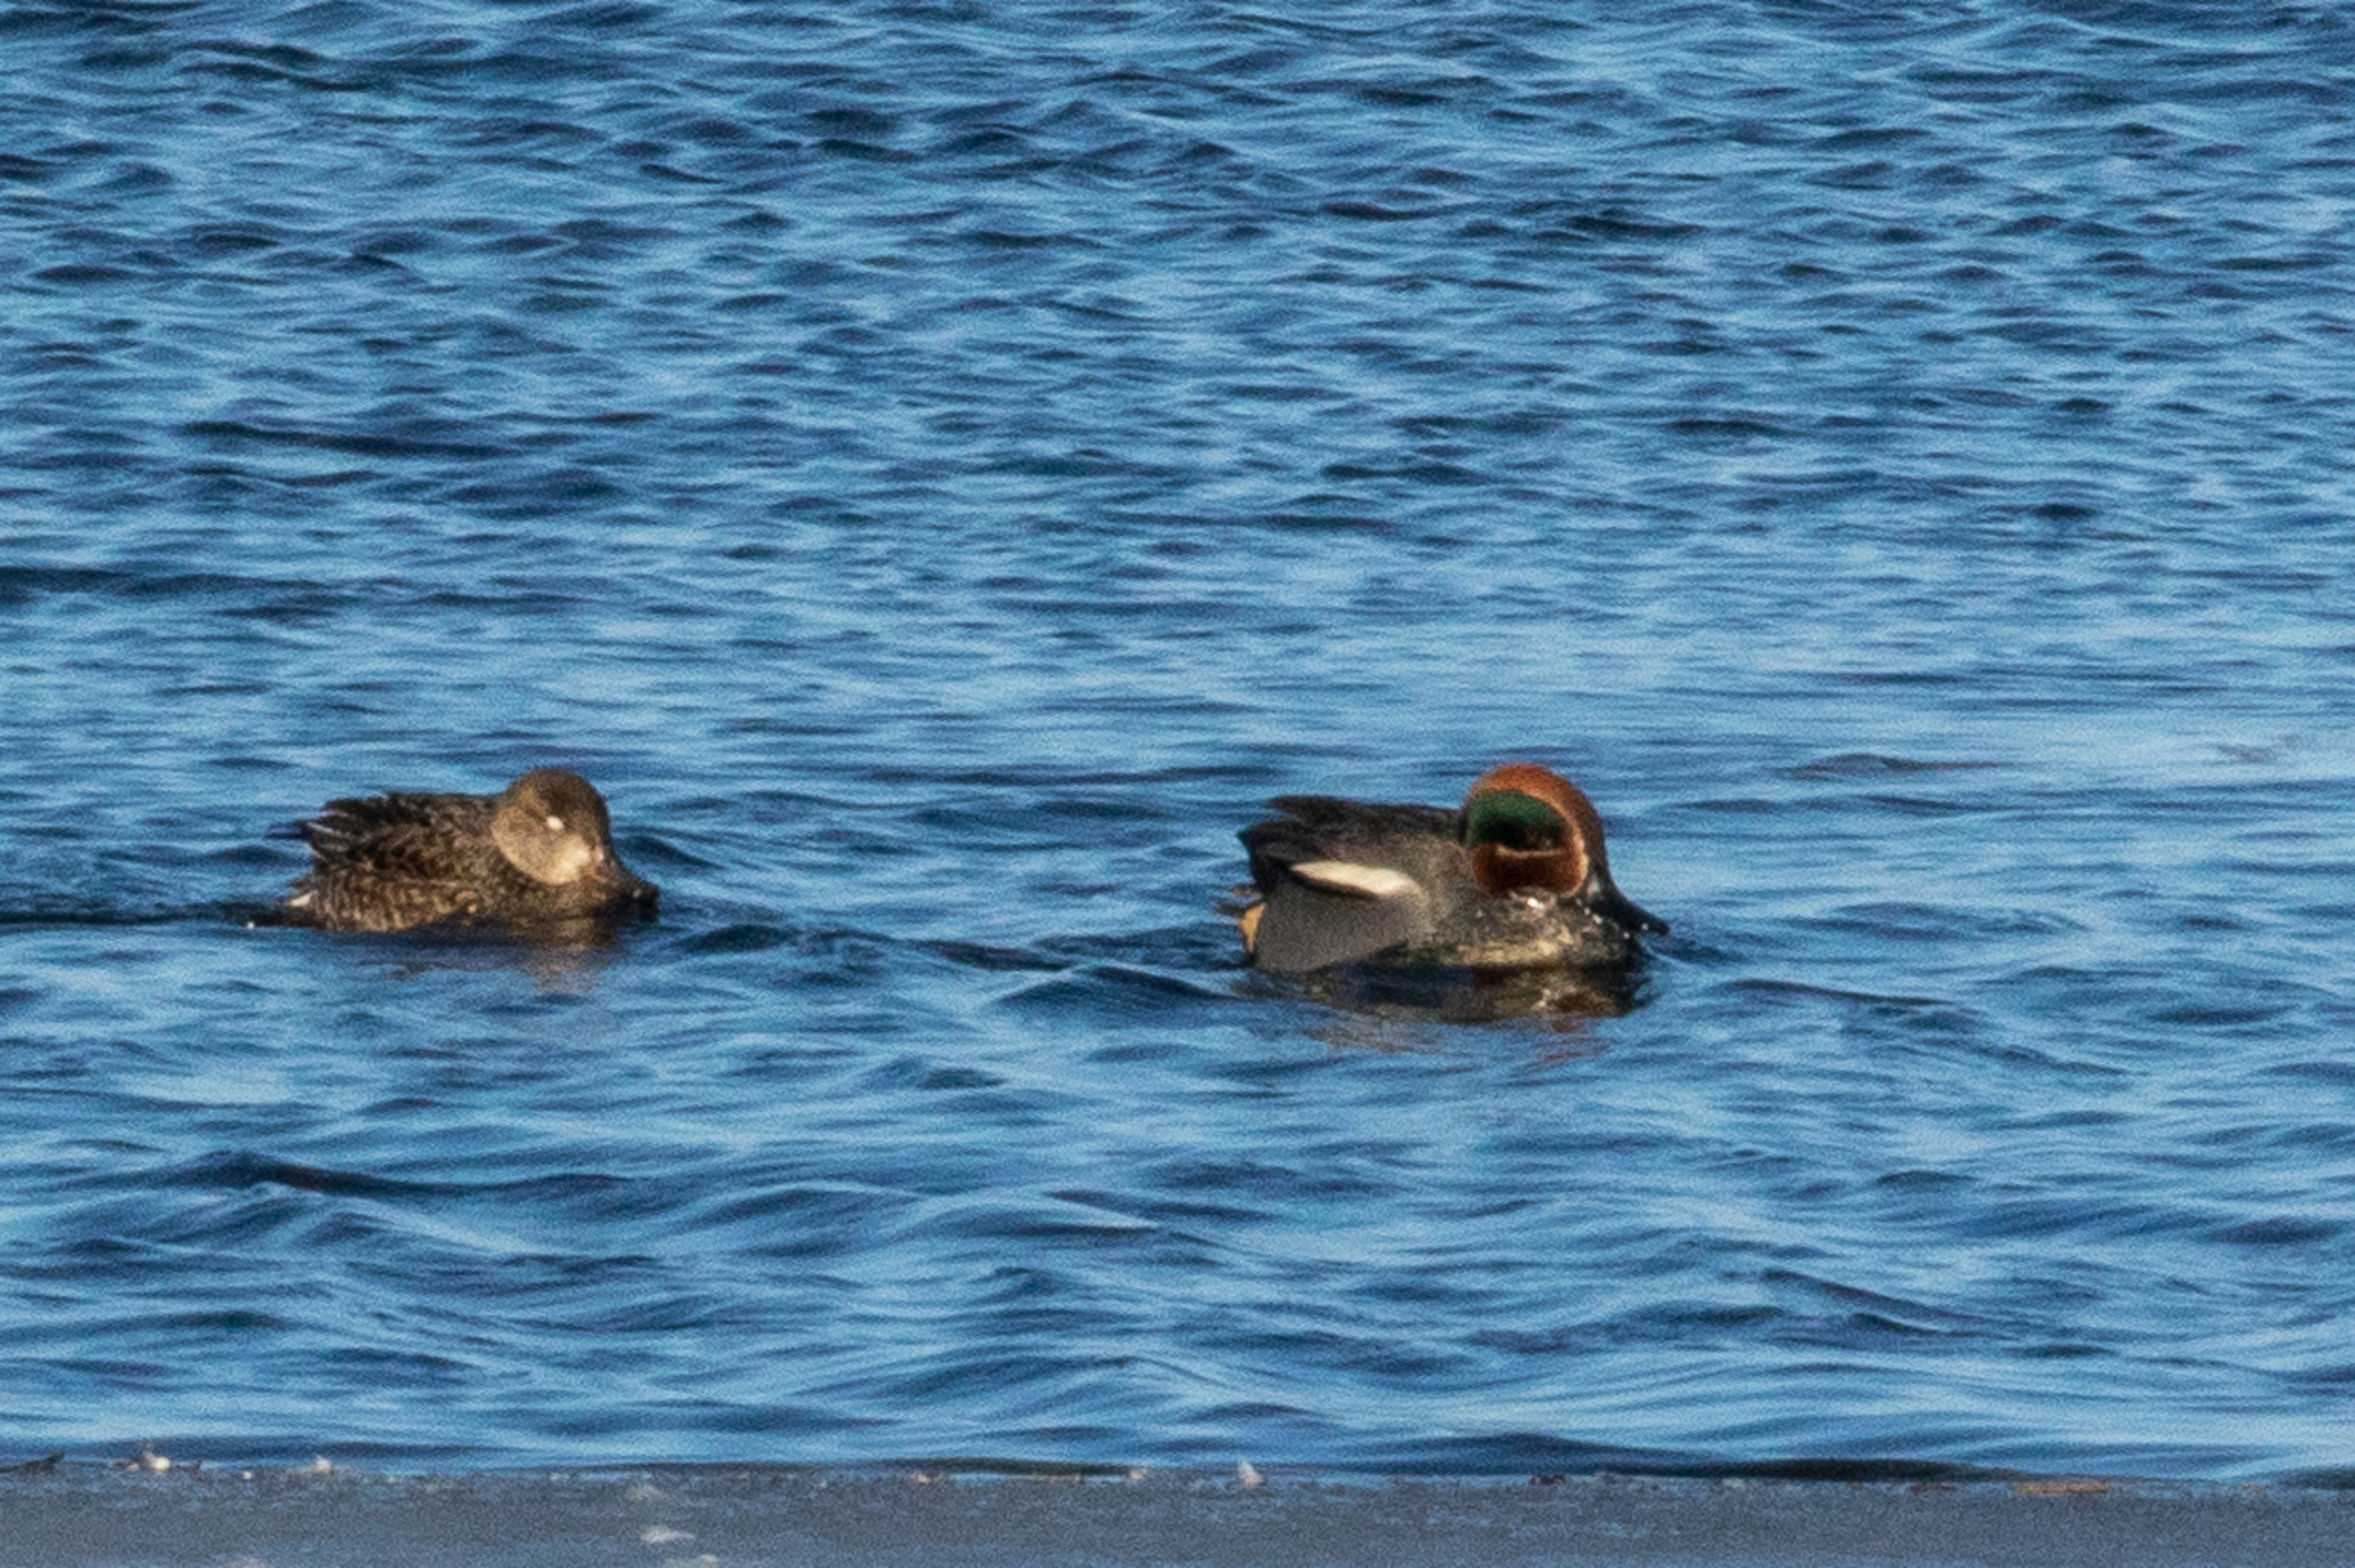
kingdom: Animalia
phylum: Chordata
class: Aves
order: Anseriformes
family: Anatidae
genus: Anas
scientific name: Anas crecca
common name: Krikand
